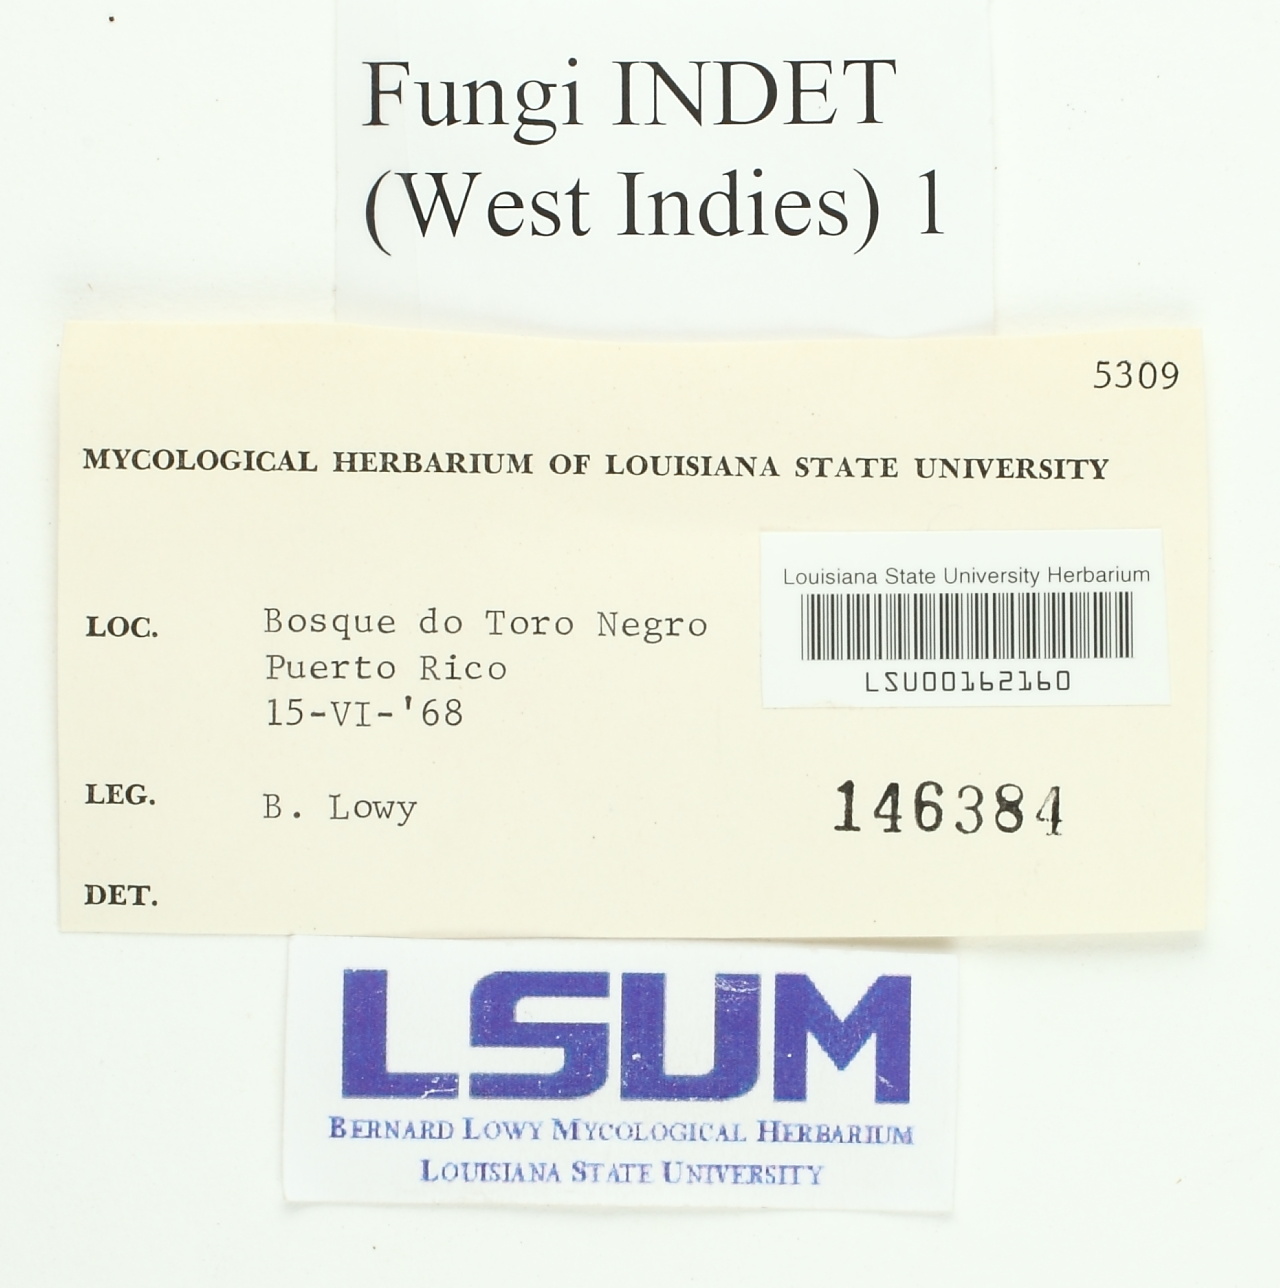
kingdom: Fungi
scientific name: Fungi
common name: Fungi
